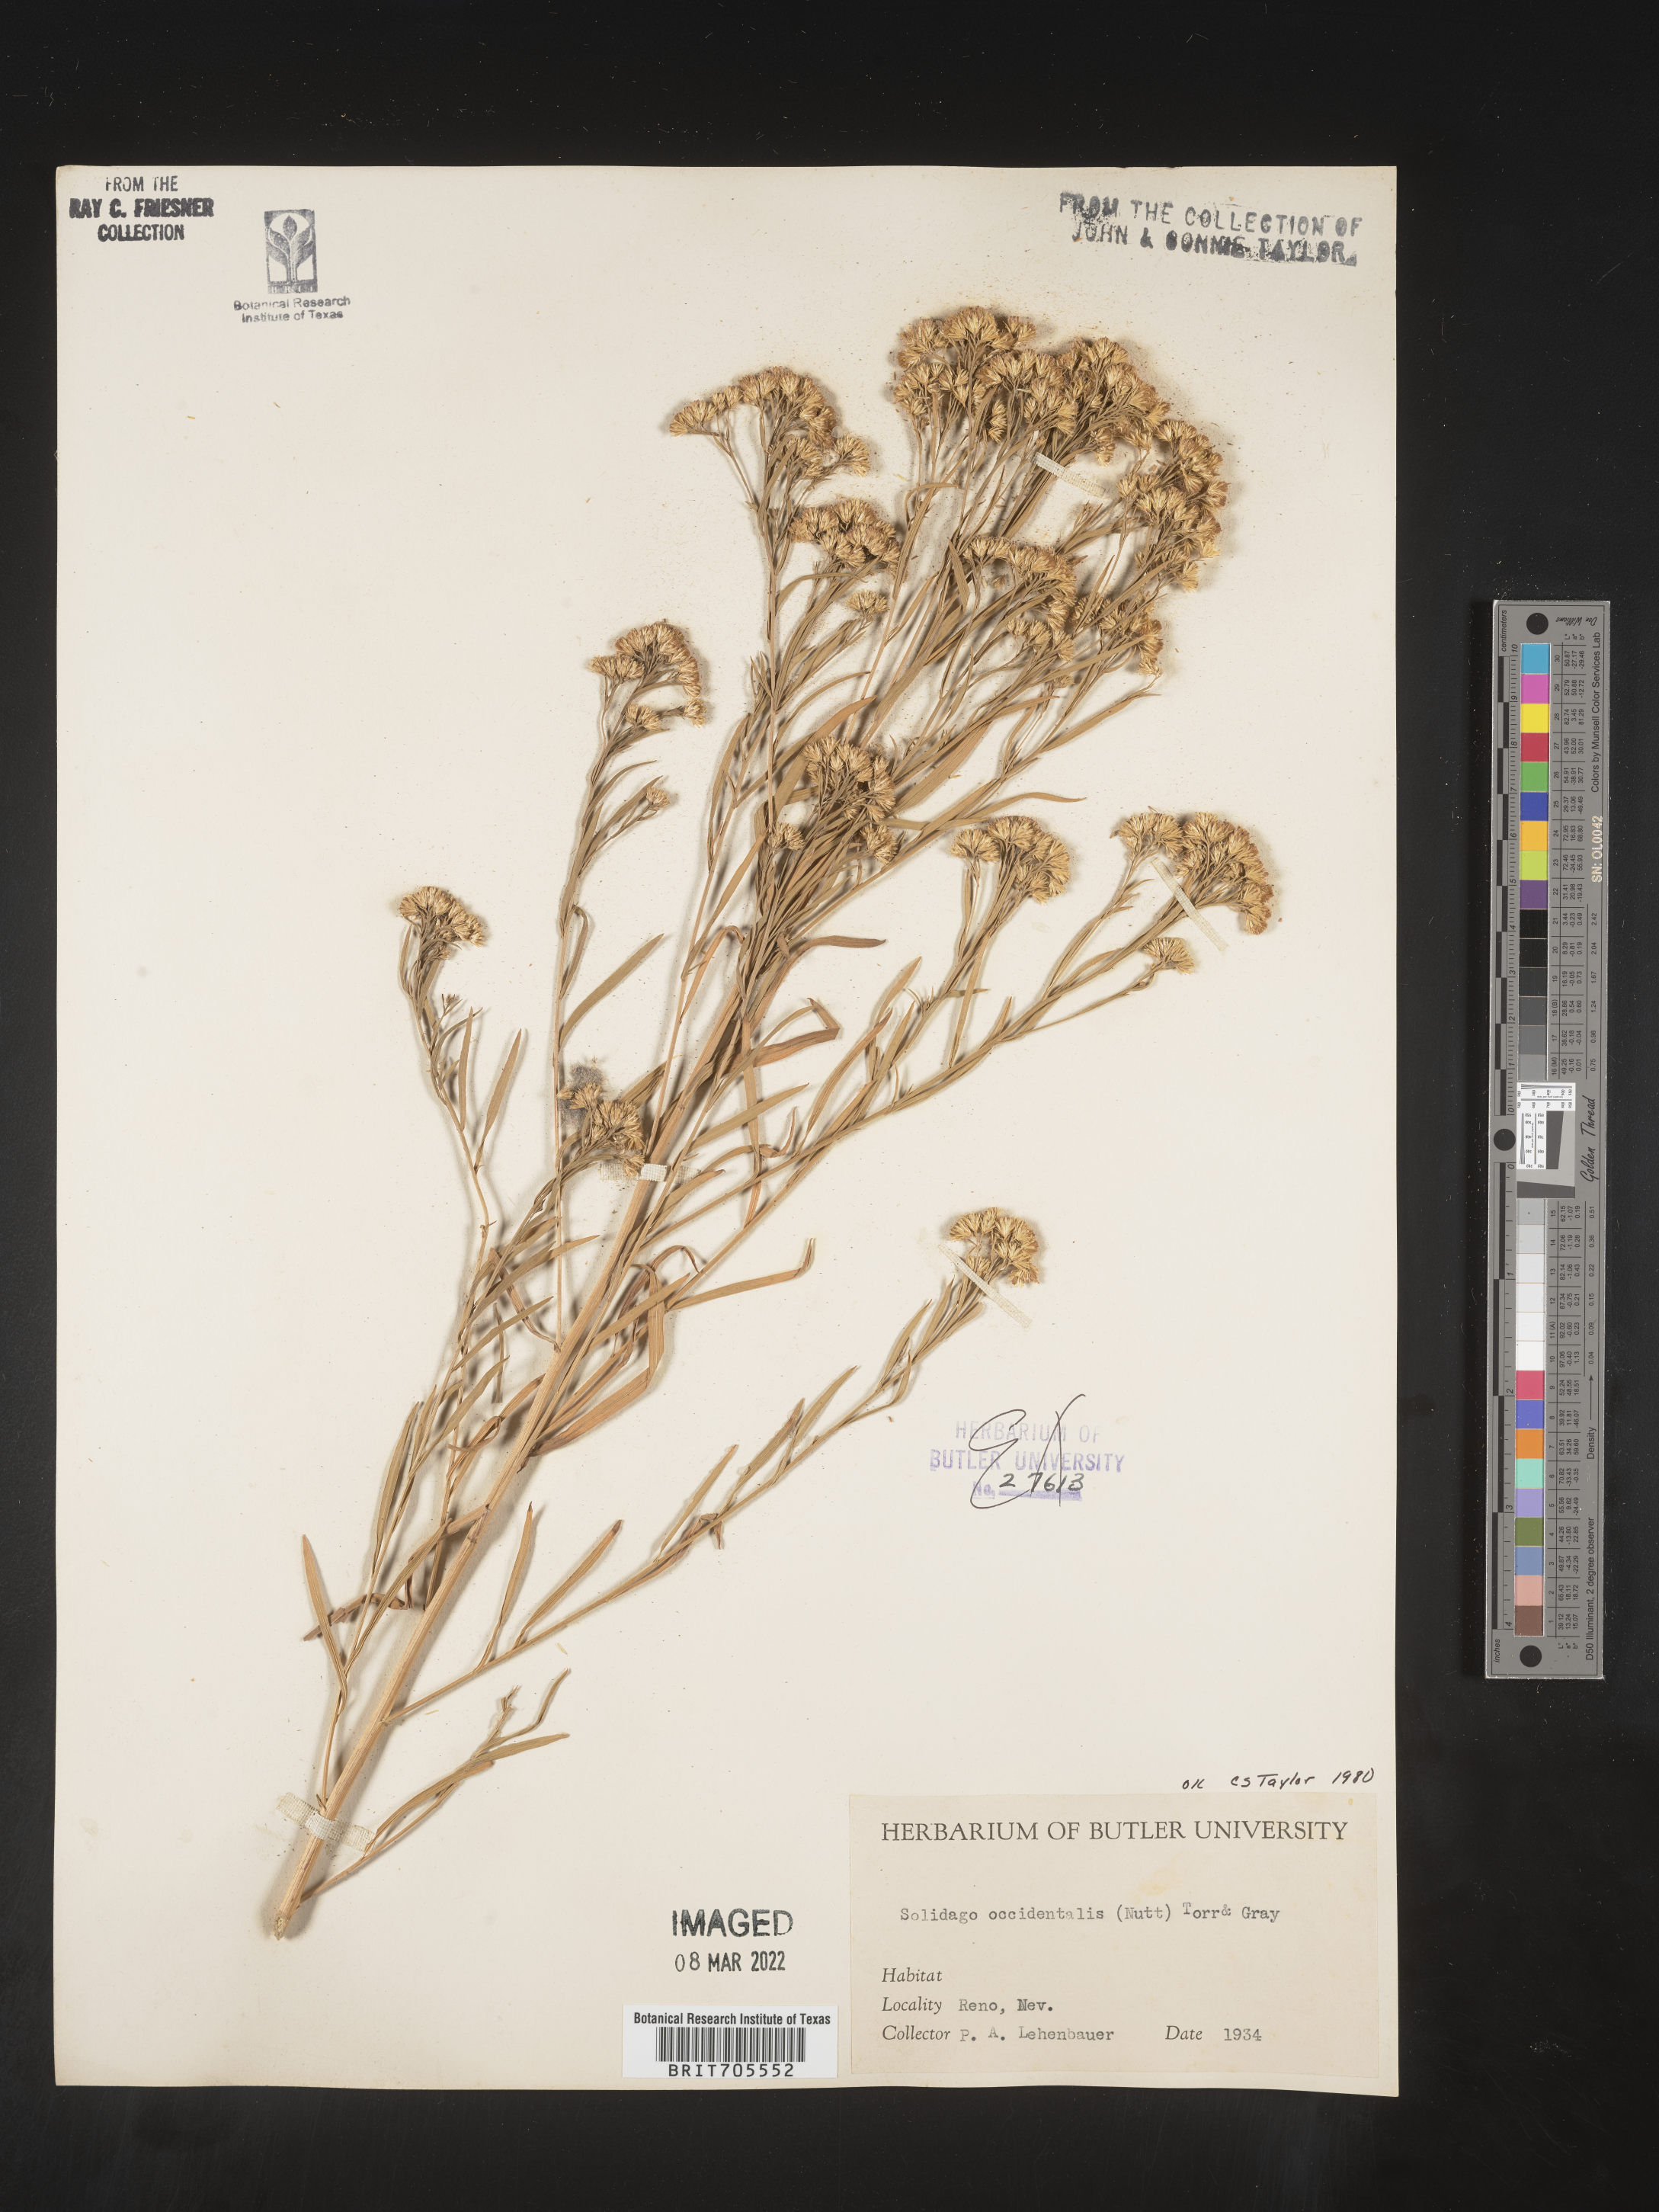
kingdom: Plantae
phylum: Tracheophyta
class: Magnoliopsida
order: Asterales
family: Asteraceae
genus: Euthamia
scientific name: Euthamia occidentalis
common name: Western goldentop
